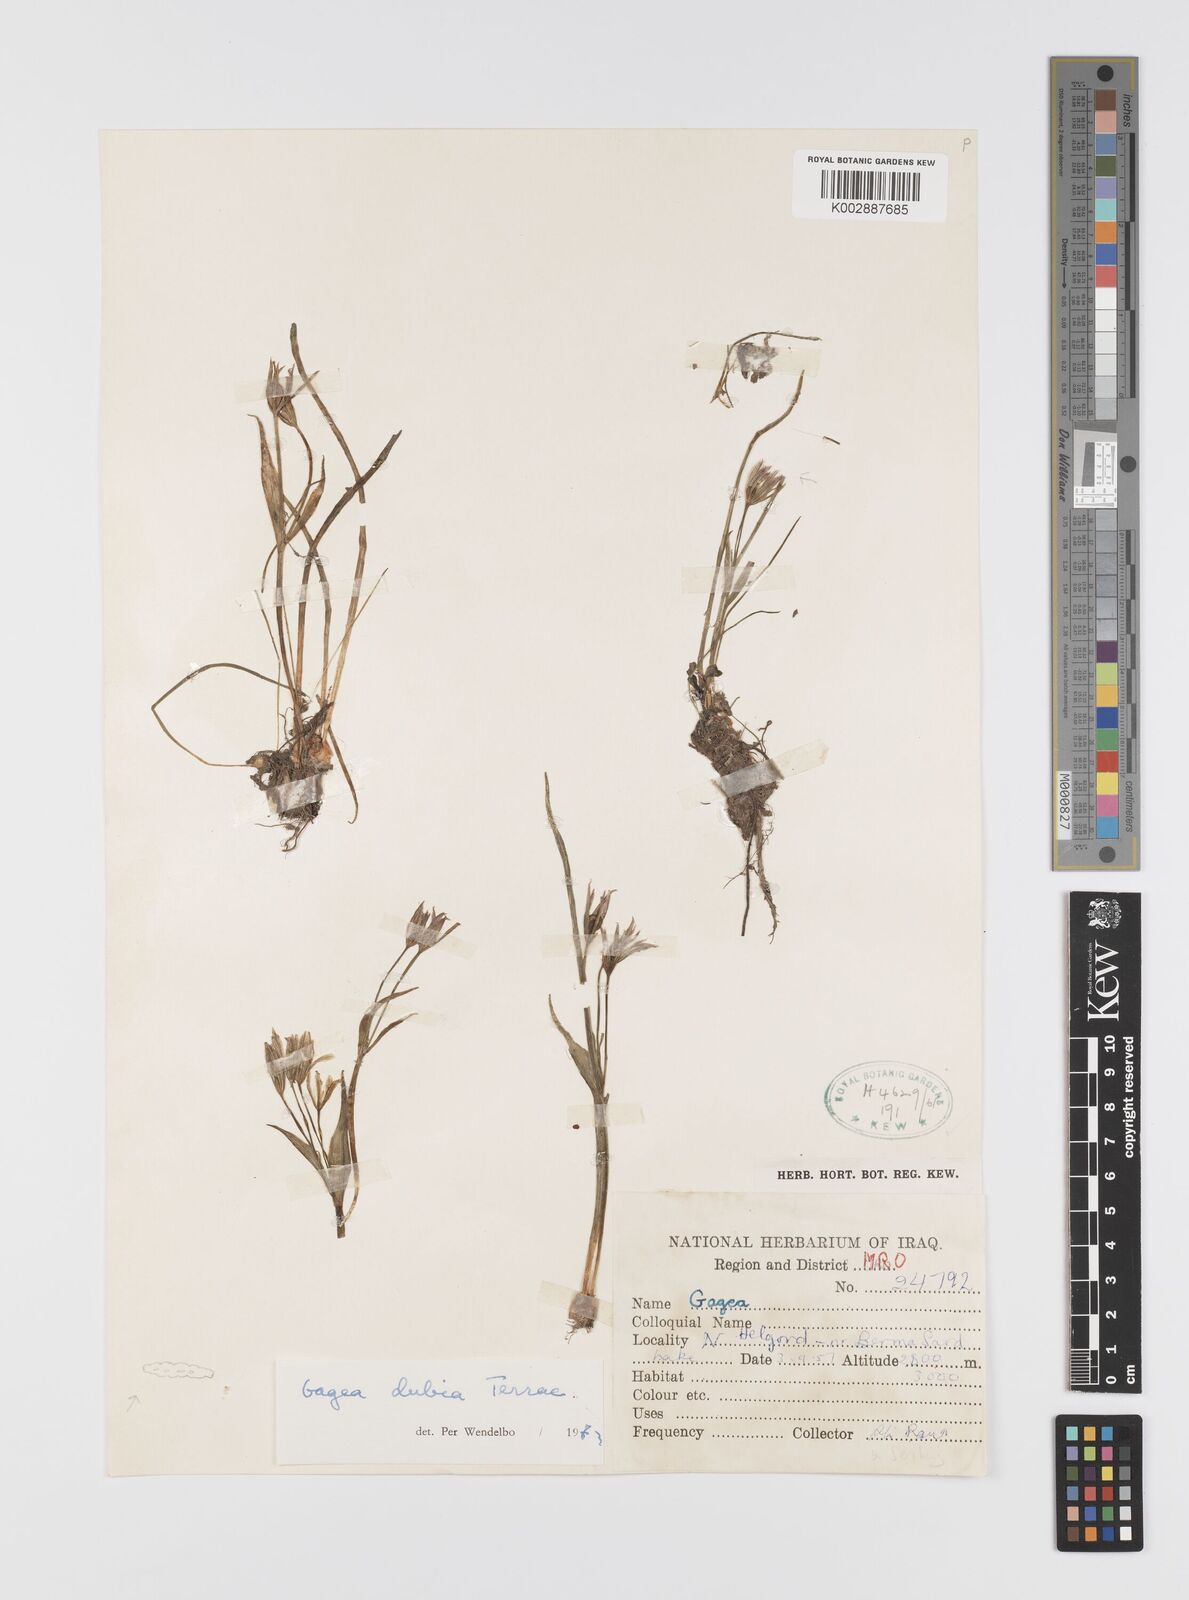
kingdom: Plantae
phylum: Tracheophyta
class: Liliopsida
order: Liliales
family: Liliaceae
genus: Gagea
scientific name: Gagea dubia
